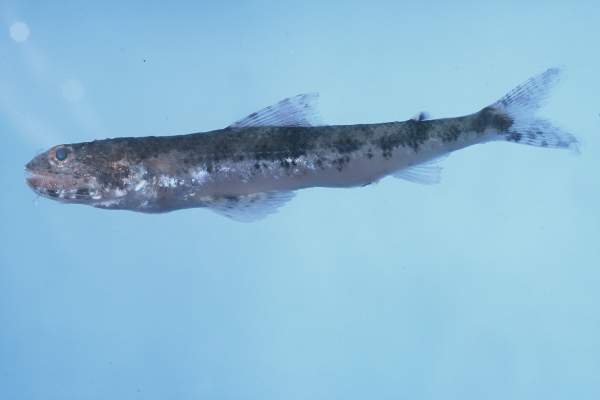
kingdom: Animalia
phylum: Chordata
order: Aulopiformes
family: Synodontidae
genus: Saurida
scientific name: Saurida gracilis
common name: Slender lizardfish
